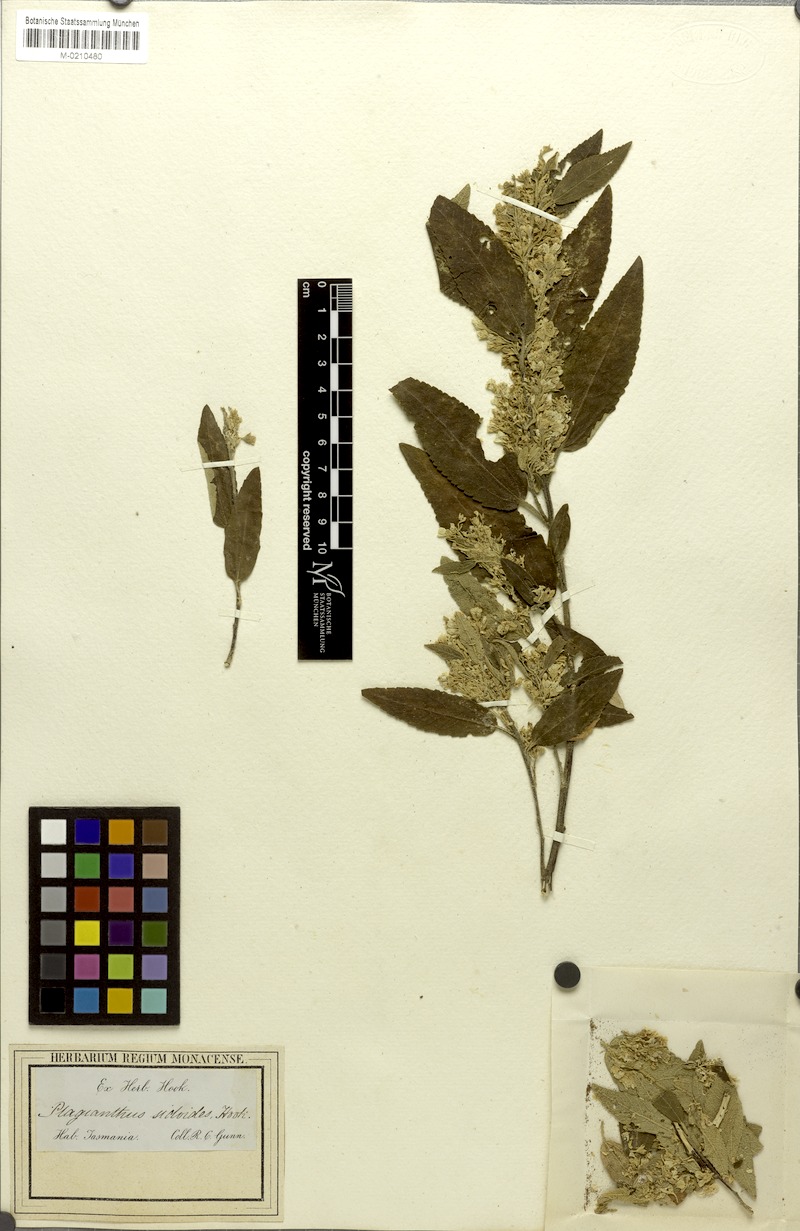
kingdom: Plantae
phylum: Tracheophyta
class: Magnoliopsida
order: Malvales
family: Malvaceae
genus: Asterotrichion
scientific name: Asterotrichion discolor
